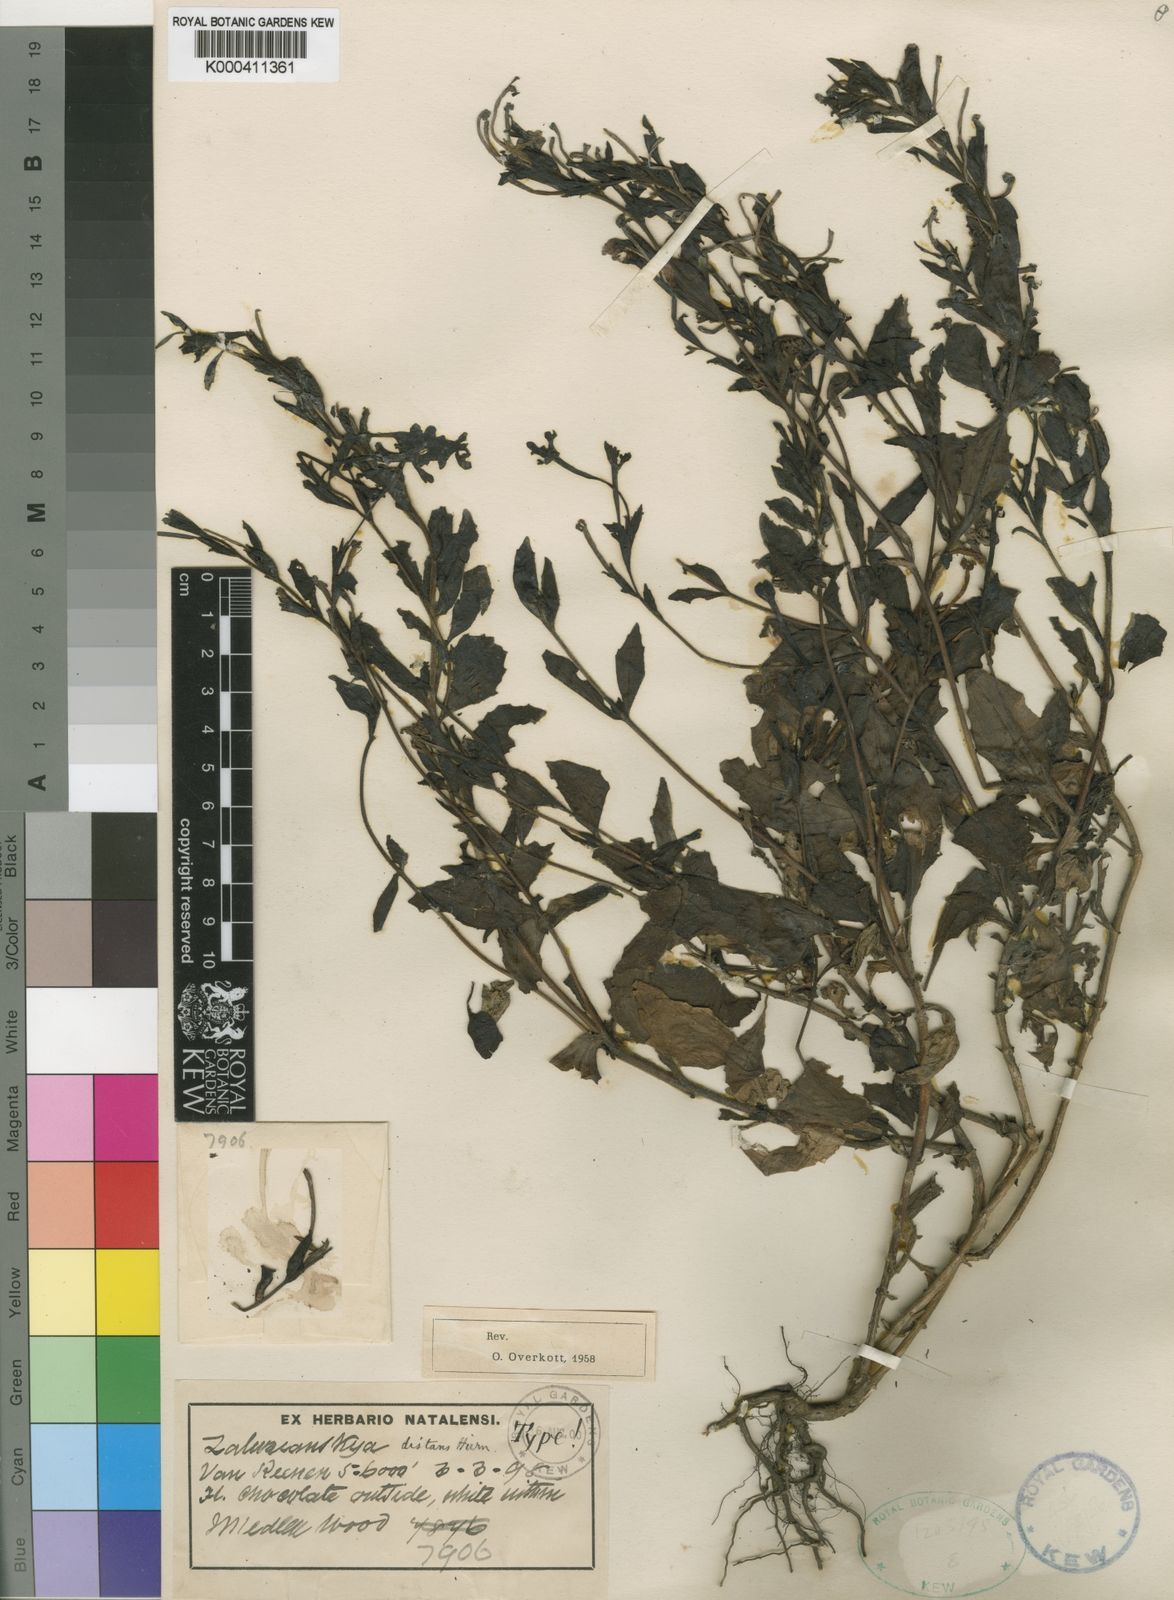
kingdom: Plantae
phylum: Tracheophyta
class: Magnoliopsida
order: Lamiales
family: Scrophulariaceae
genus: Zaluzianskya
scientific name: Zaluzianskya distans
